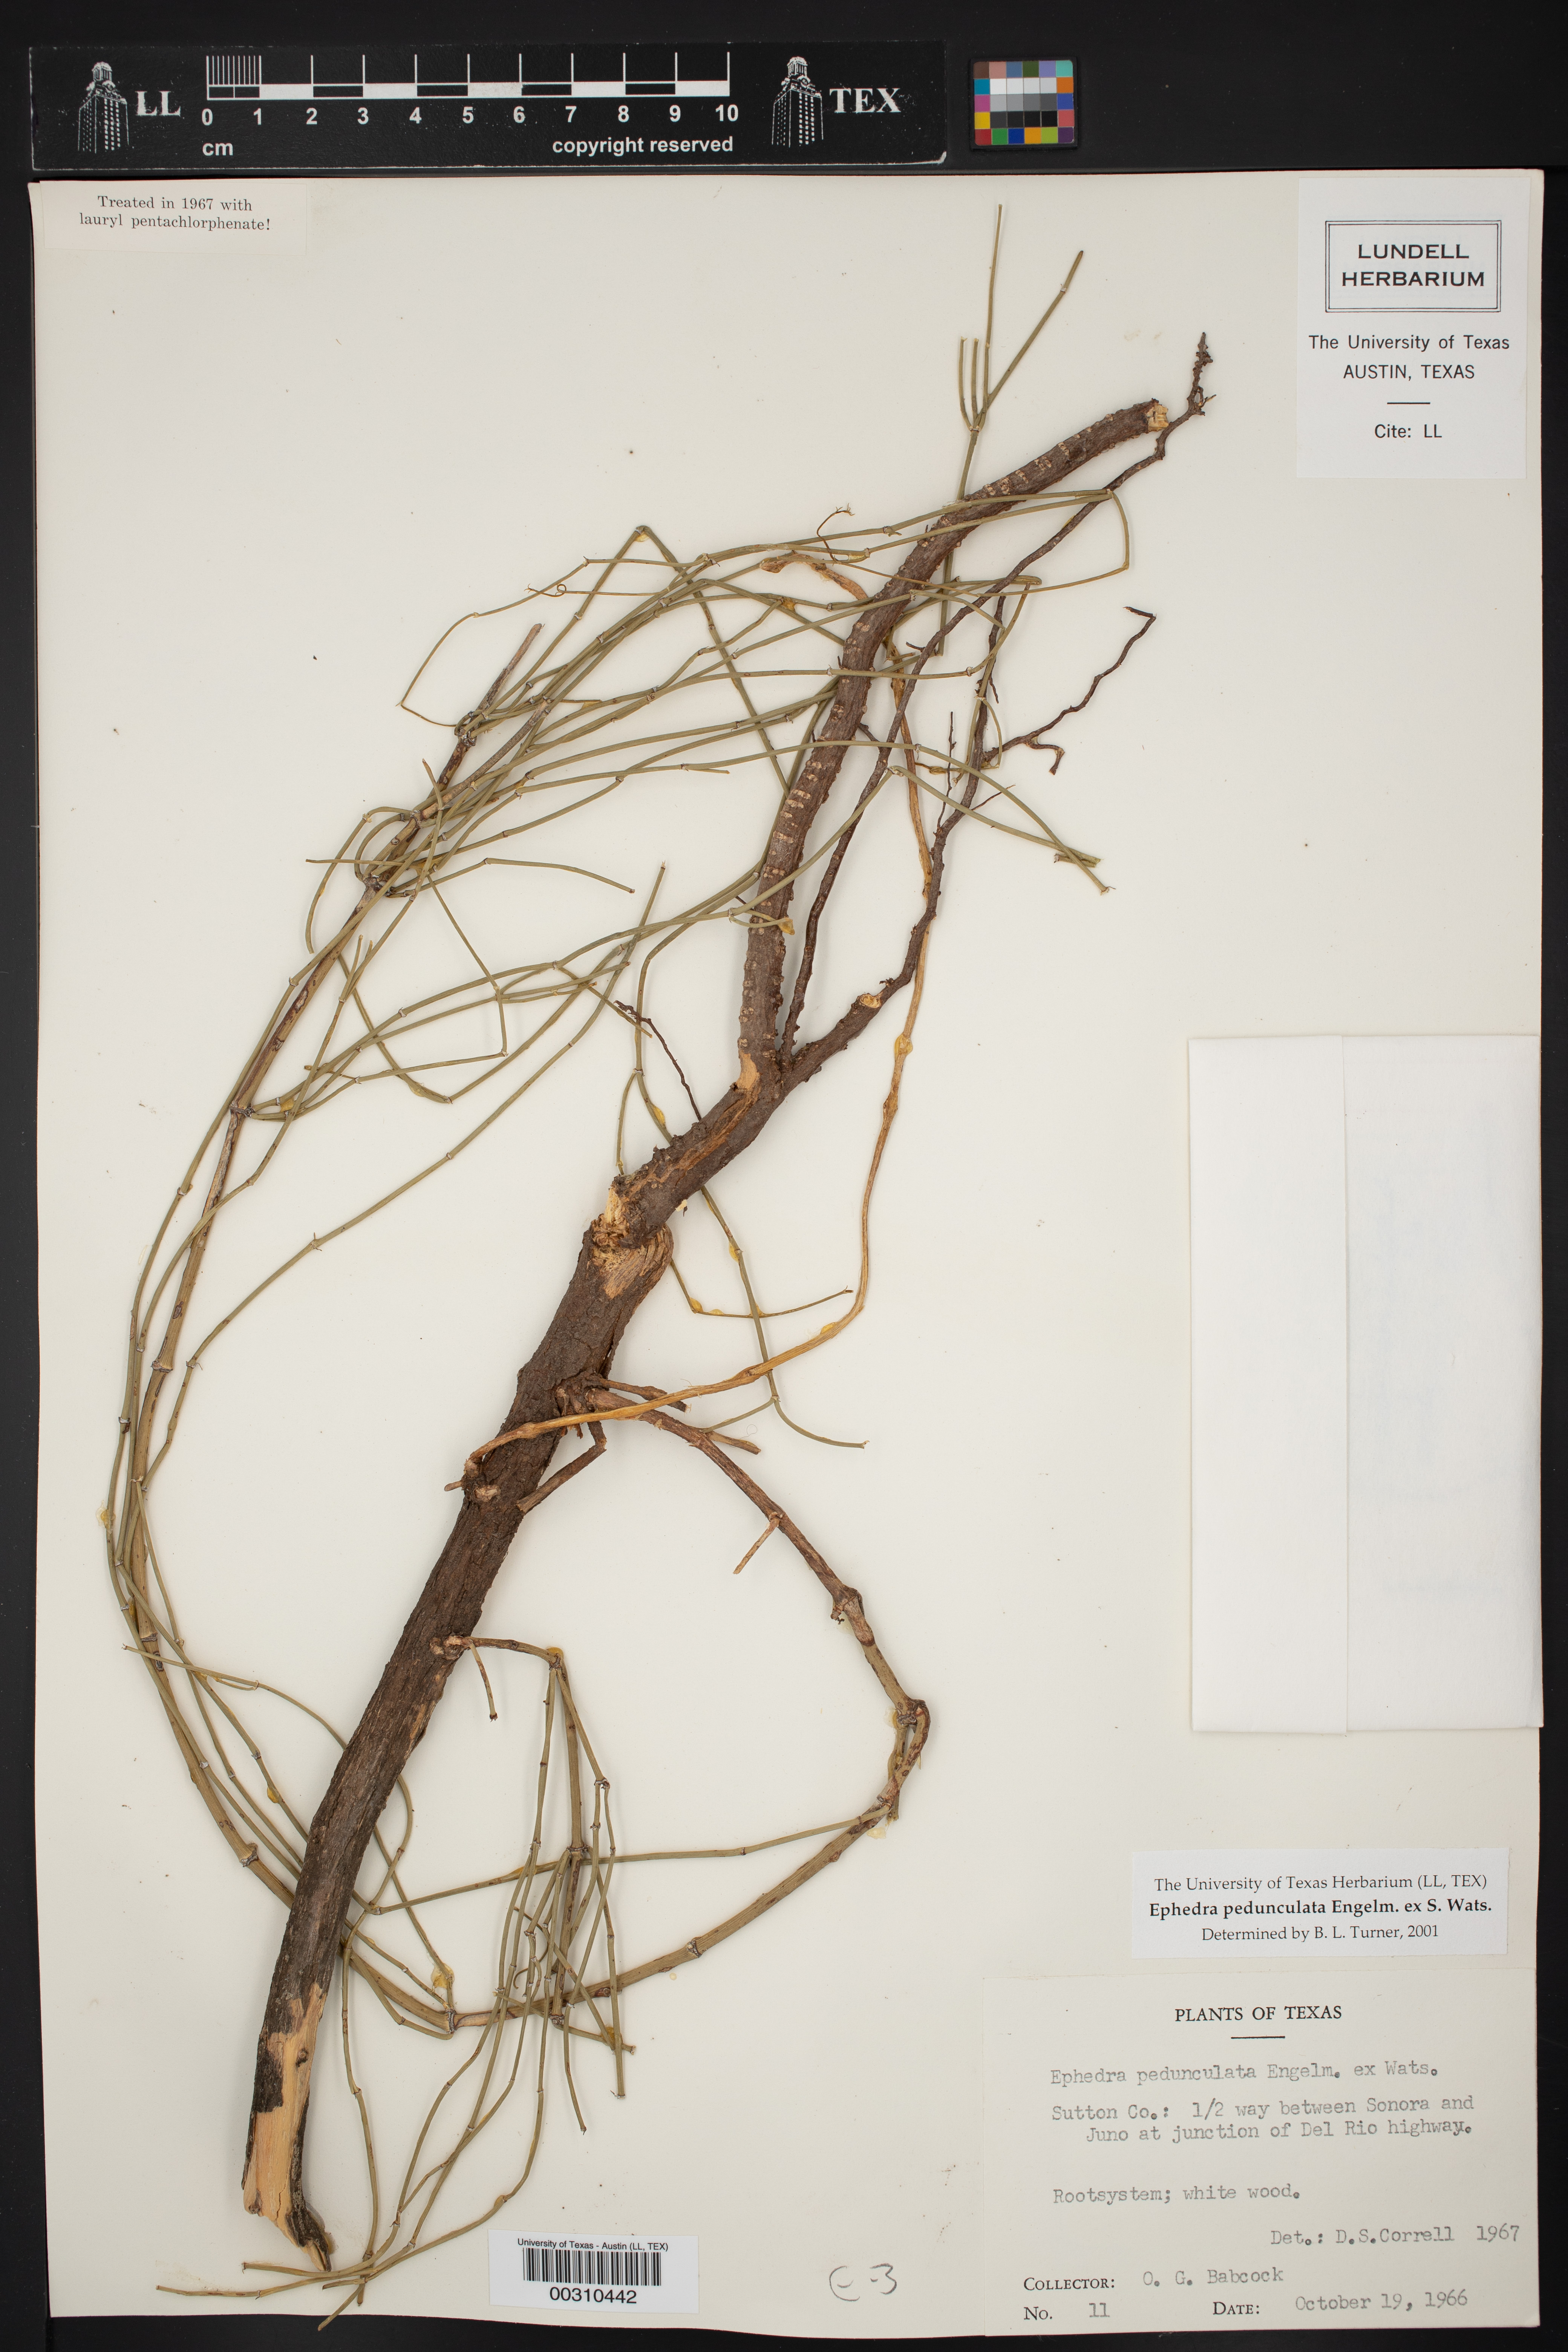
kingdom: Plantae
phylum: Tracheophyta
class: Gnetopsida
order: Ephedrales
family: Ephedraceae
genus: Ephedra
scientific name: Ephedra pedunculata
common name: Vine ephedra
